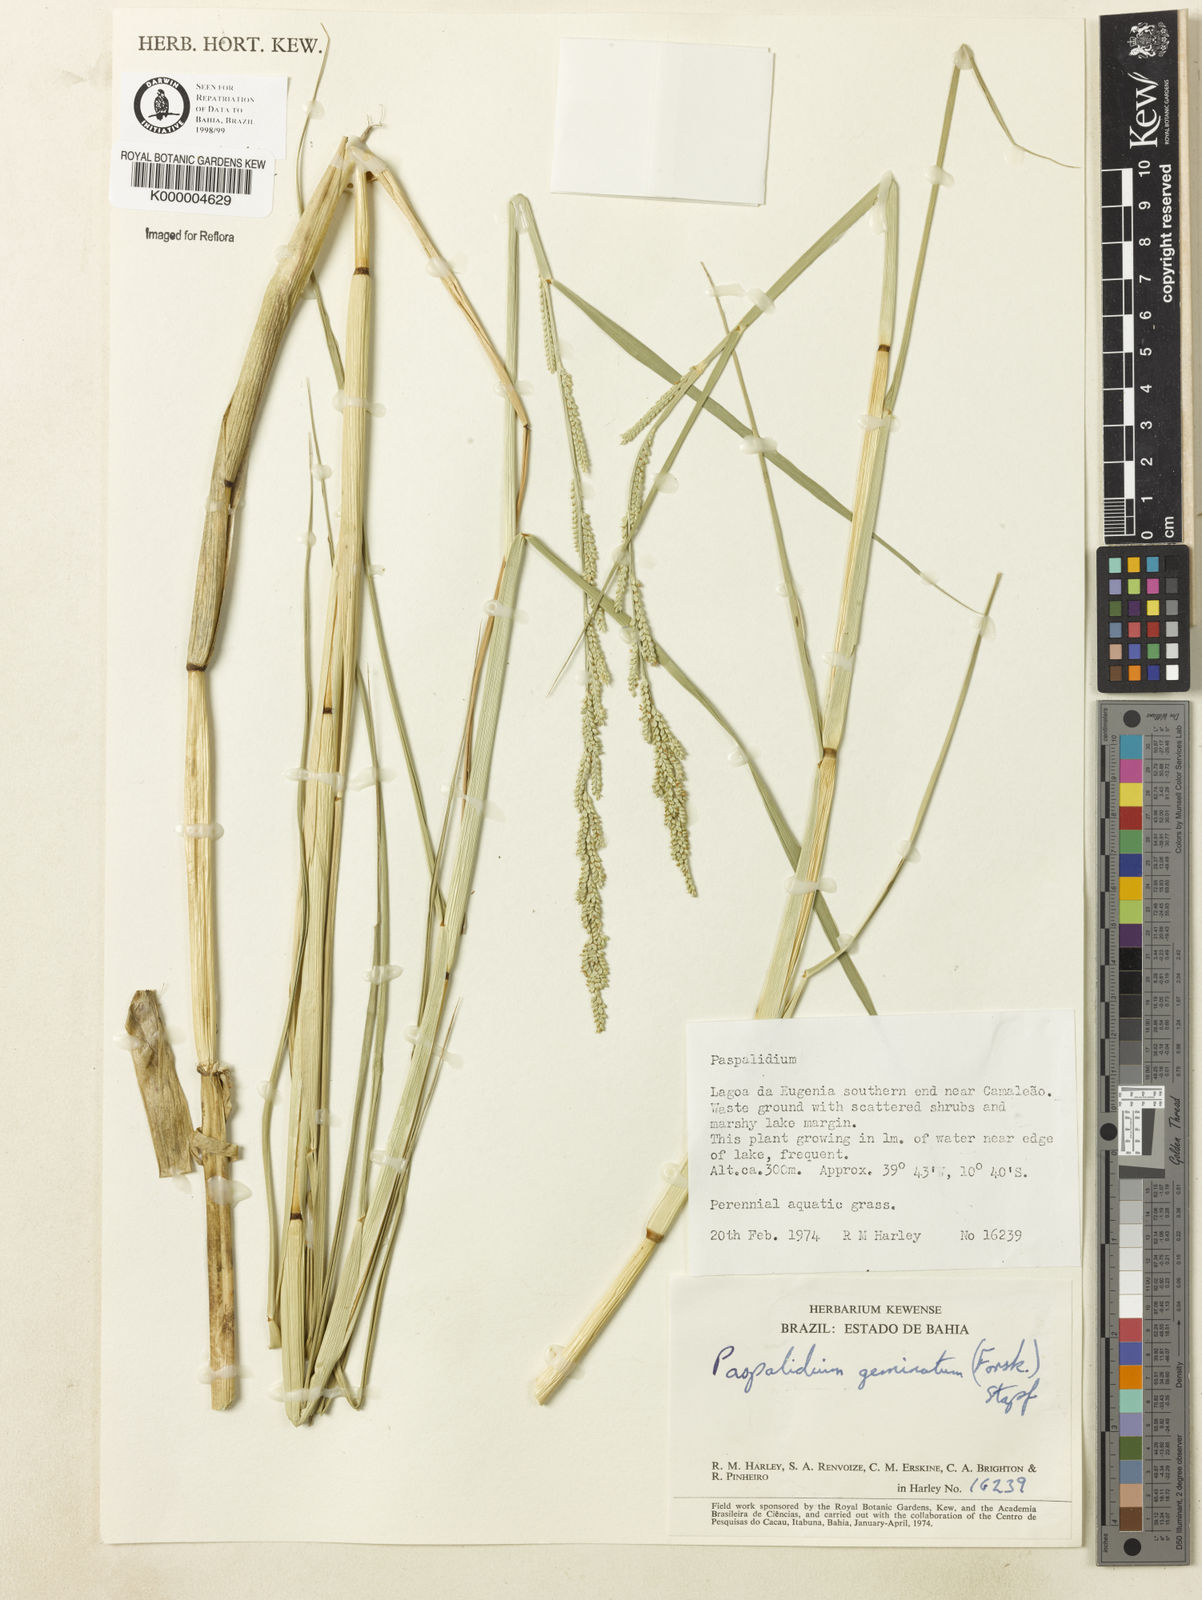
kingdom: Plantae
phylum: Tracheophyta
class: Liliopsida
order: Poales
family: Poaceae
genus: Setaria
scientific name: Setaria geminata
